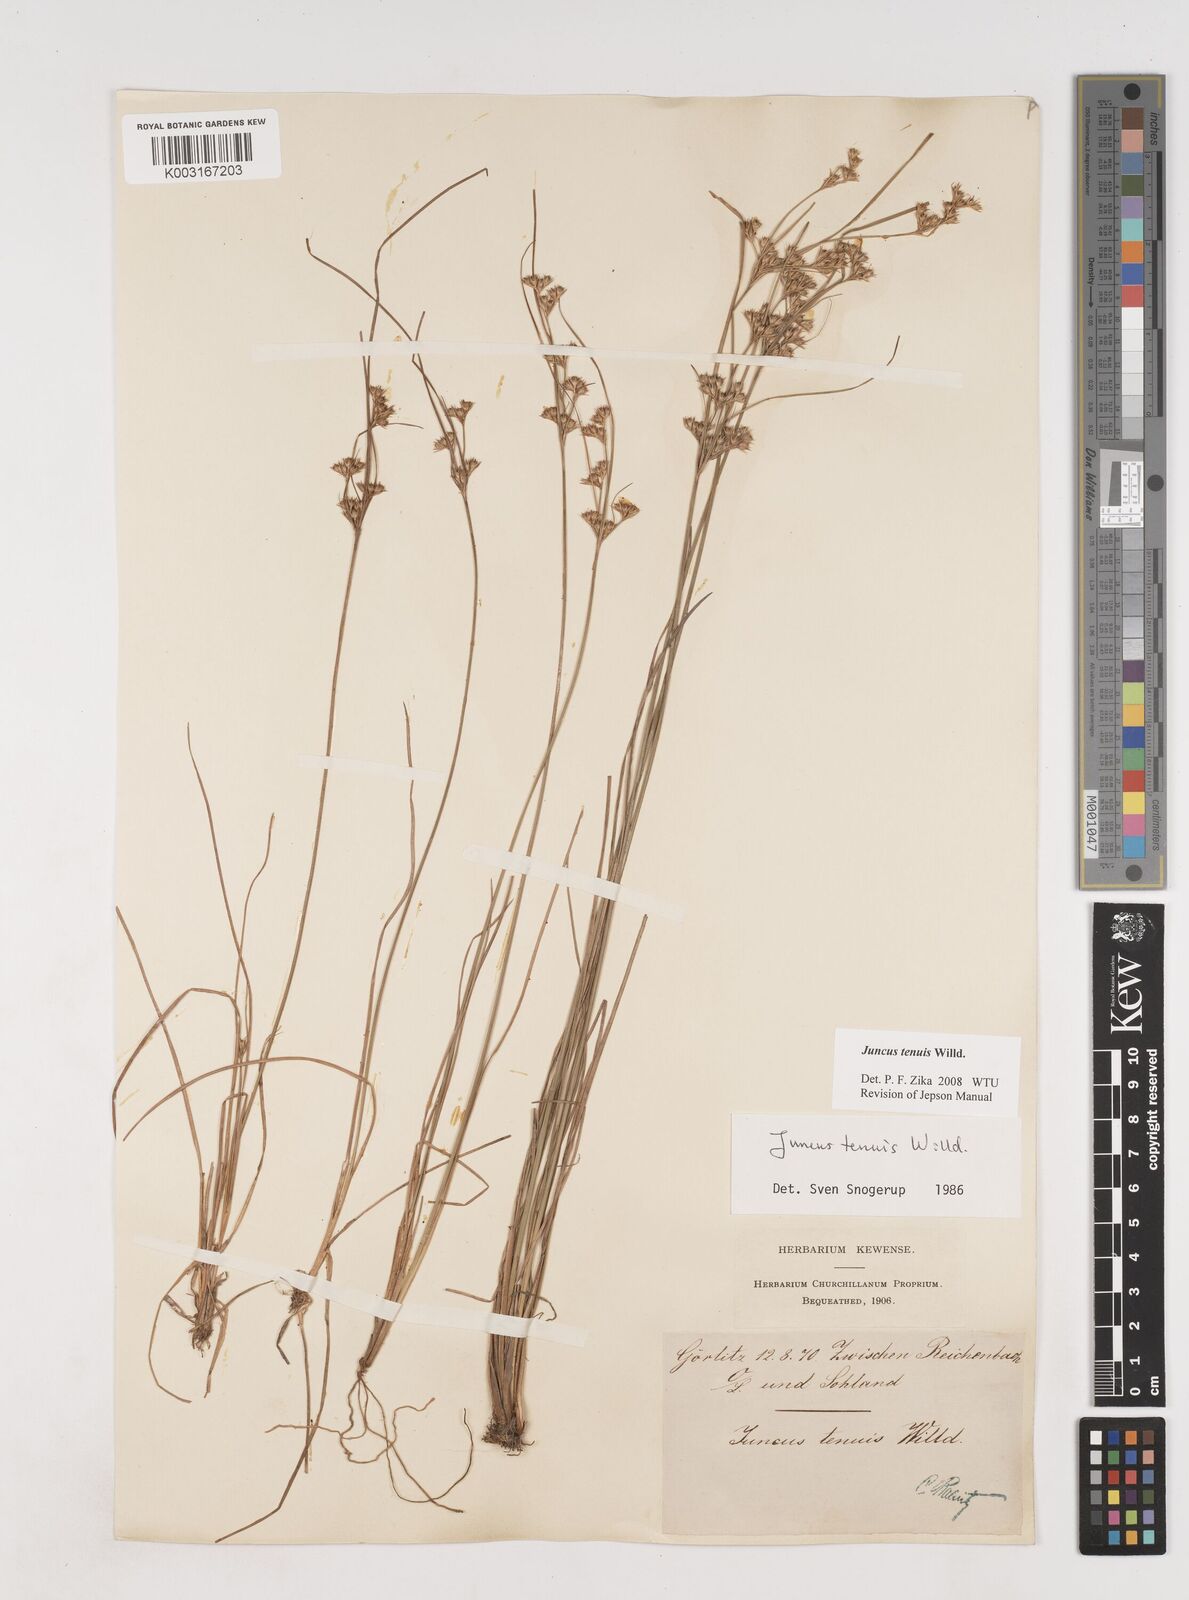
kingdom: Plantae
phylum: Tracheophyta
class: Liliopsida
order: Poales
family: Juncaceae
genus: Juncus
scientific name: Juncus tenuis
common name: Slender rush
